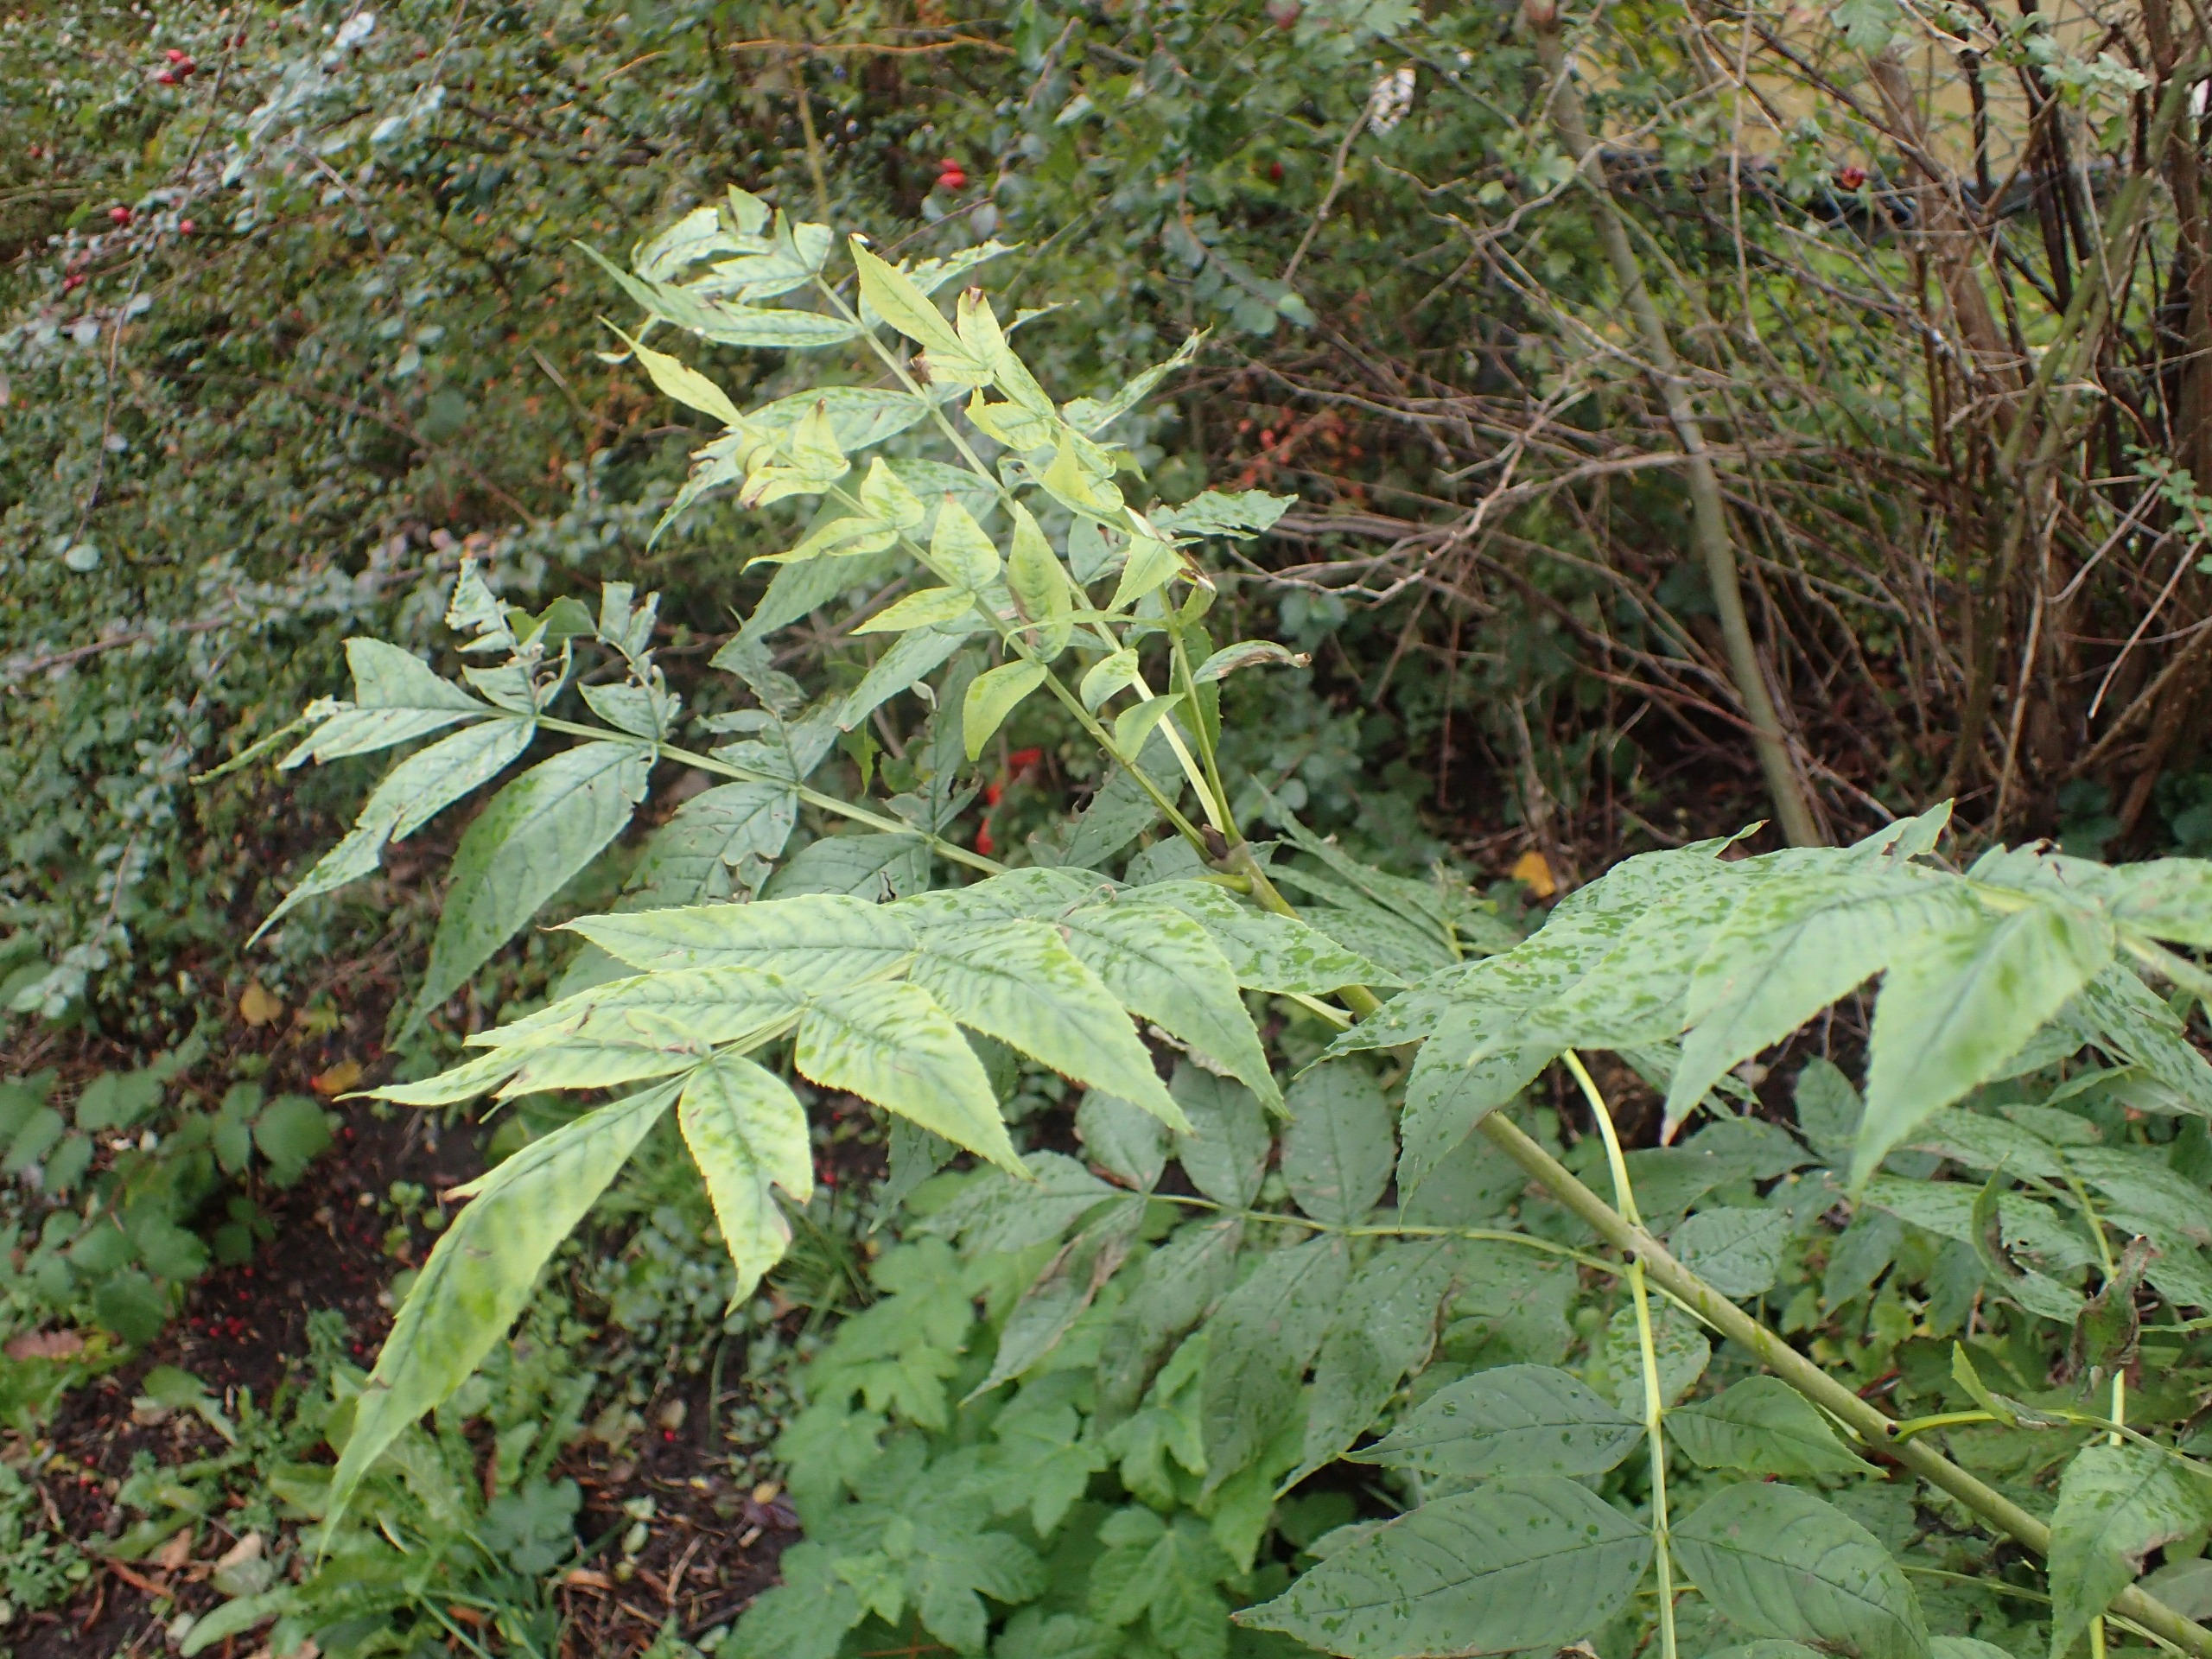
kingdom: Plantae
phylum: Tracheophyta
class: Magnoliopsida
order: Lamiales
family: Oleaceae
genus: Fraxinus
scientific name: Fraxinus excelsior
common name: Ask
